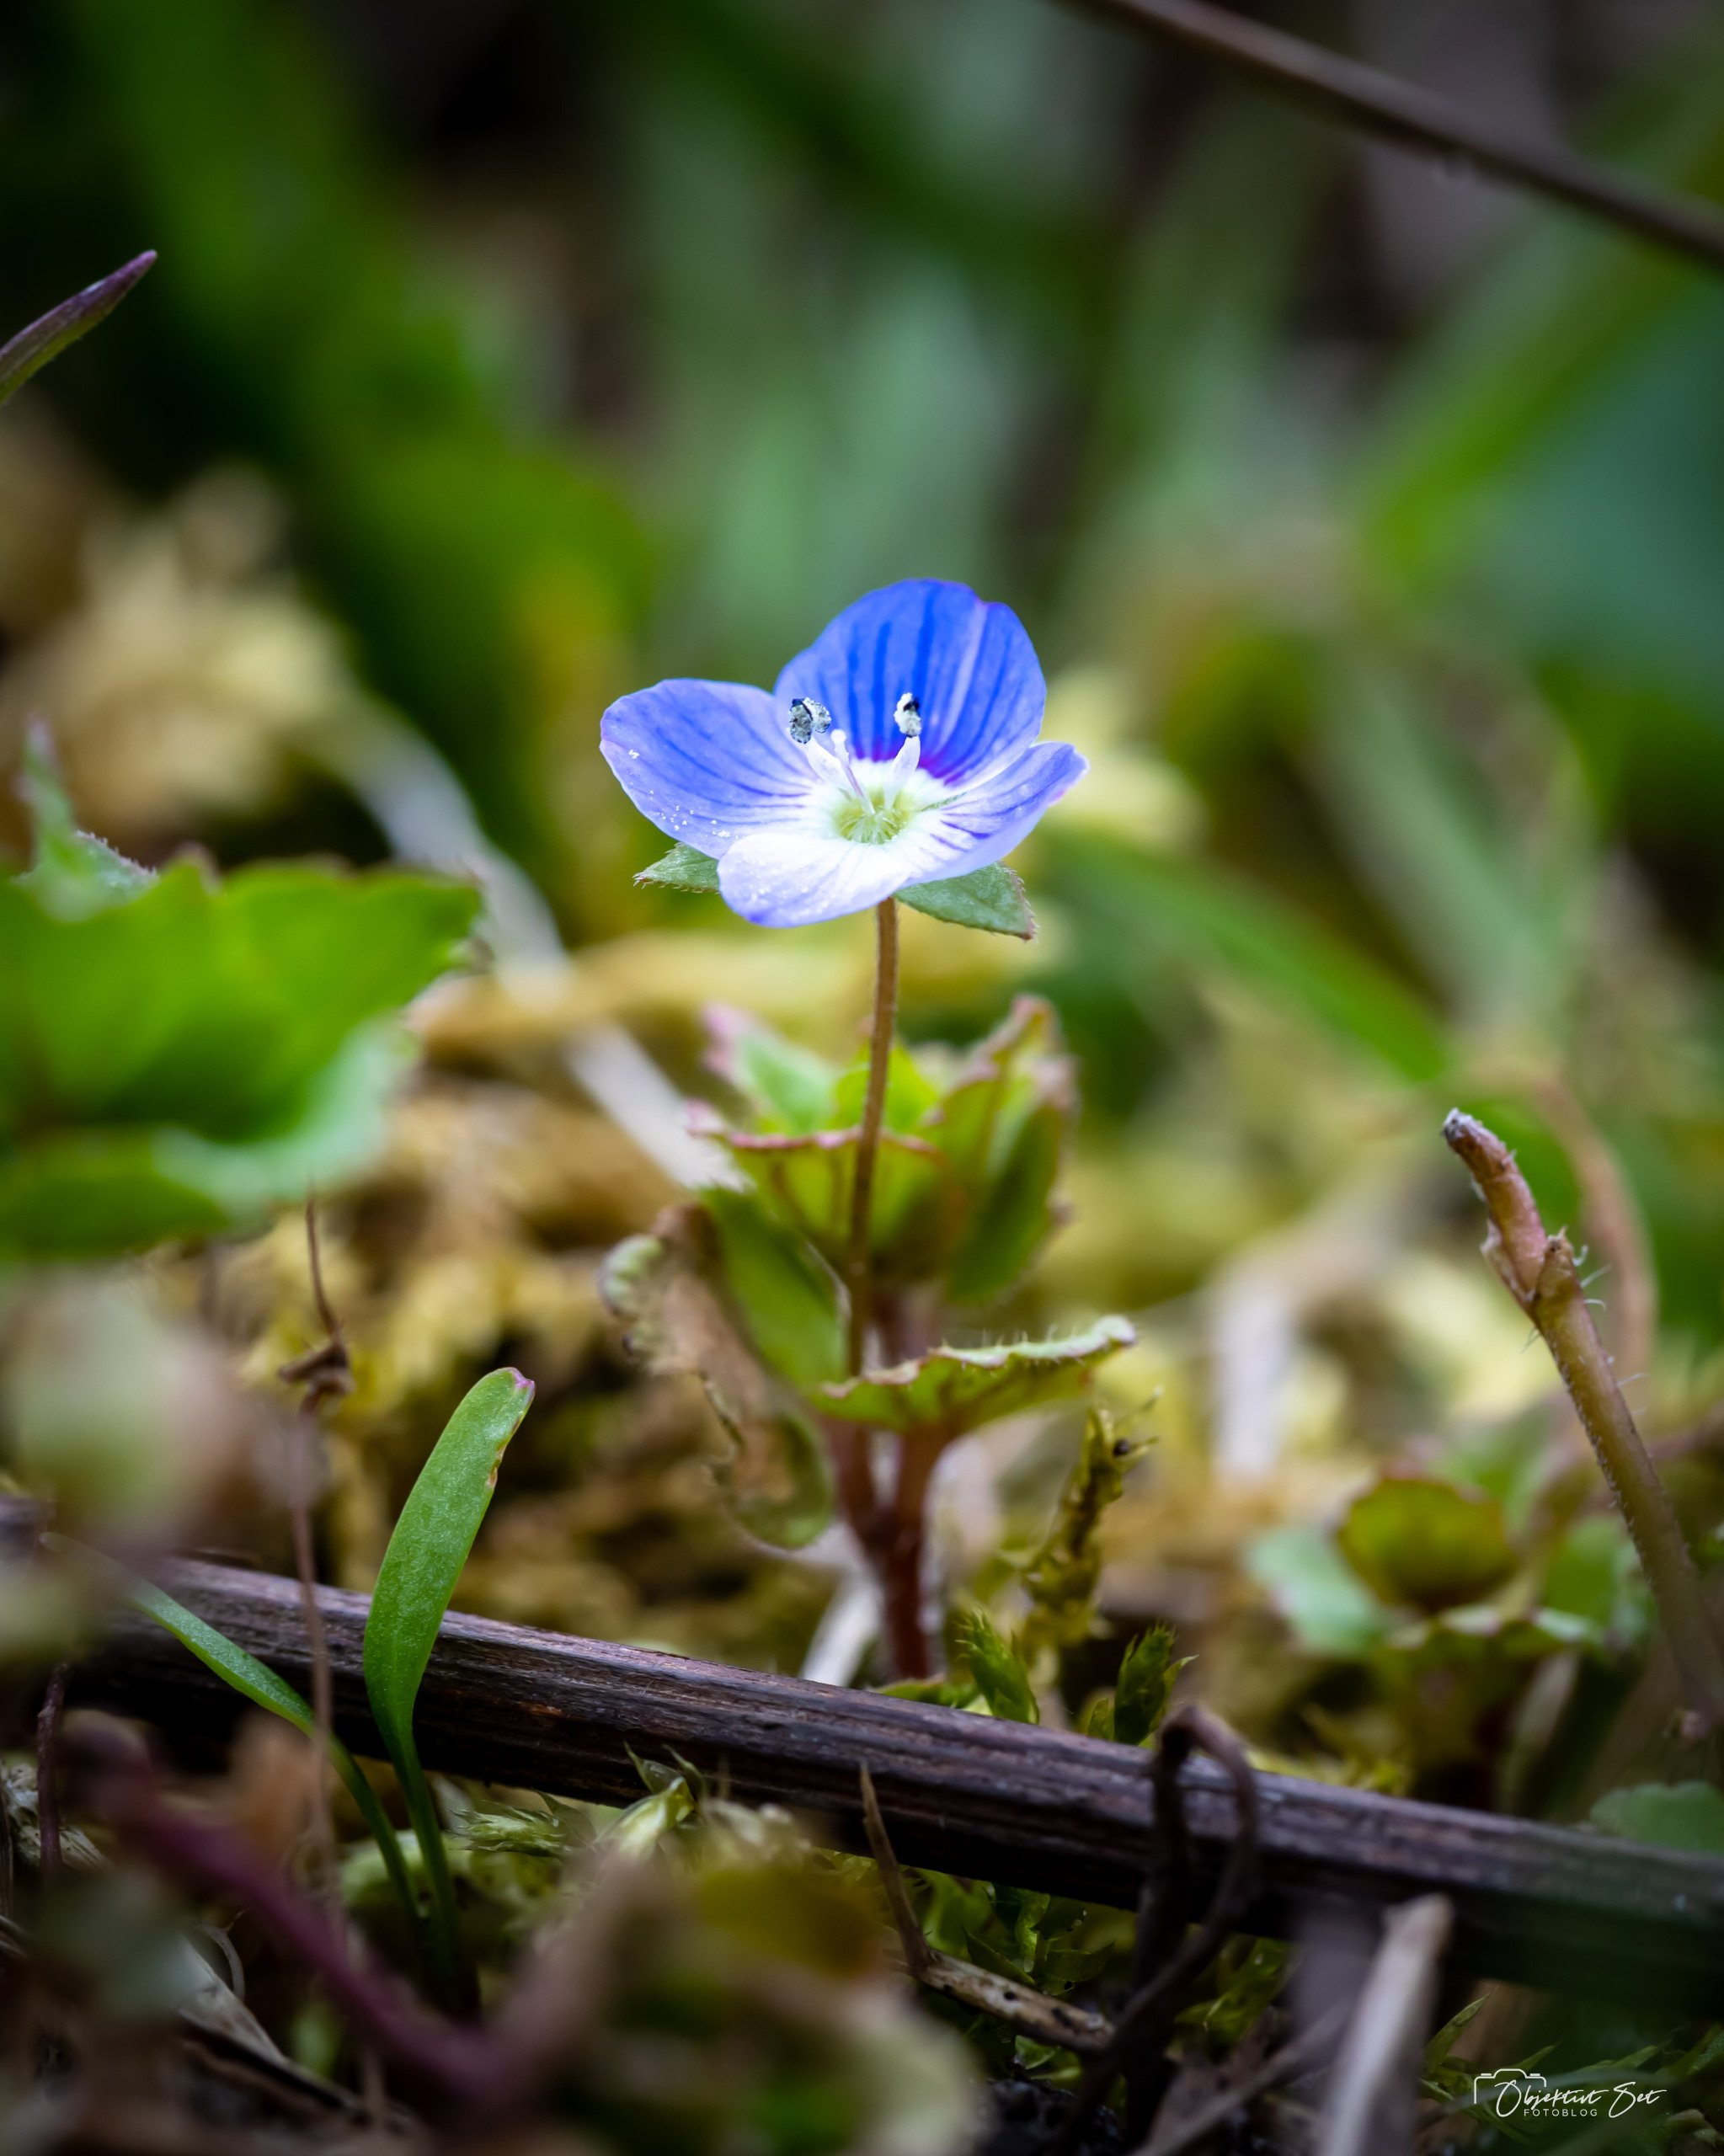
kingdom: Plantae
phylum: Tracheophyta
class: Magnoliopsida
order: Lamiales
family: Plantaginaceae
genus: Veronica
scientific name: Veronica persica
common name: Storkronet ærenpris
